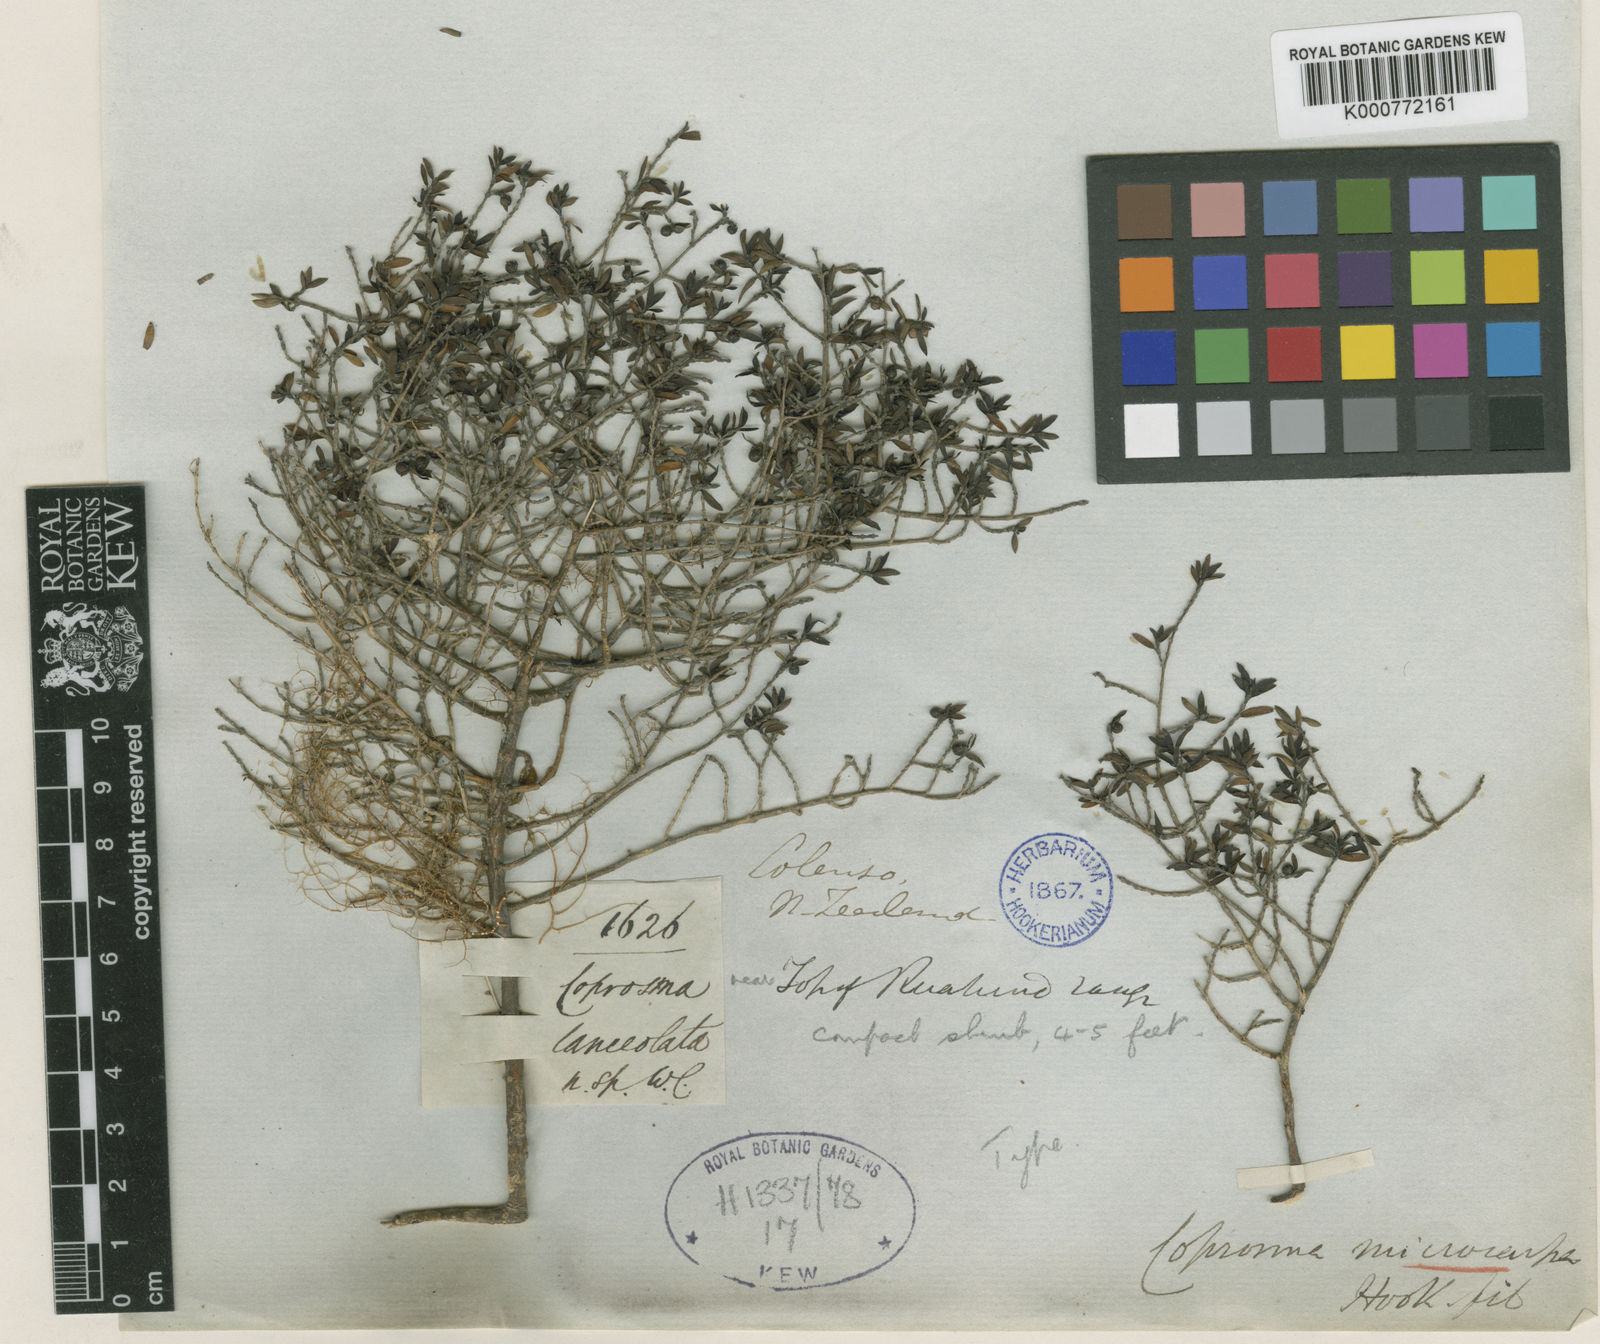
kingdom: Plantae
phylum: Tracheophyta
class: Magnoliopsida
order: Gentianales
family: Rubiaceae
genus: Coprosma
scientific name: Coprosma microcarpa
